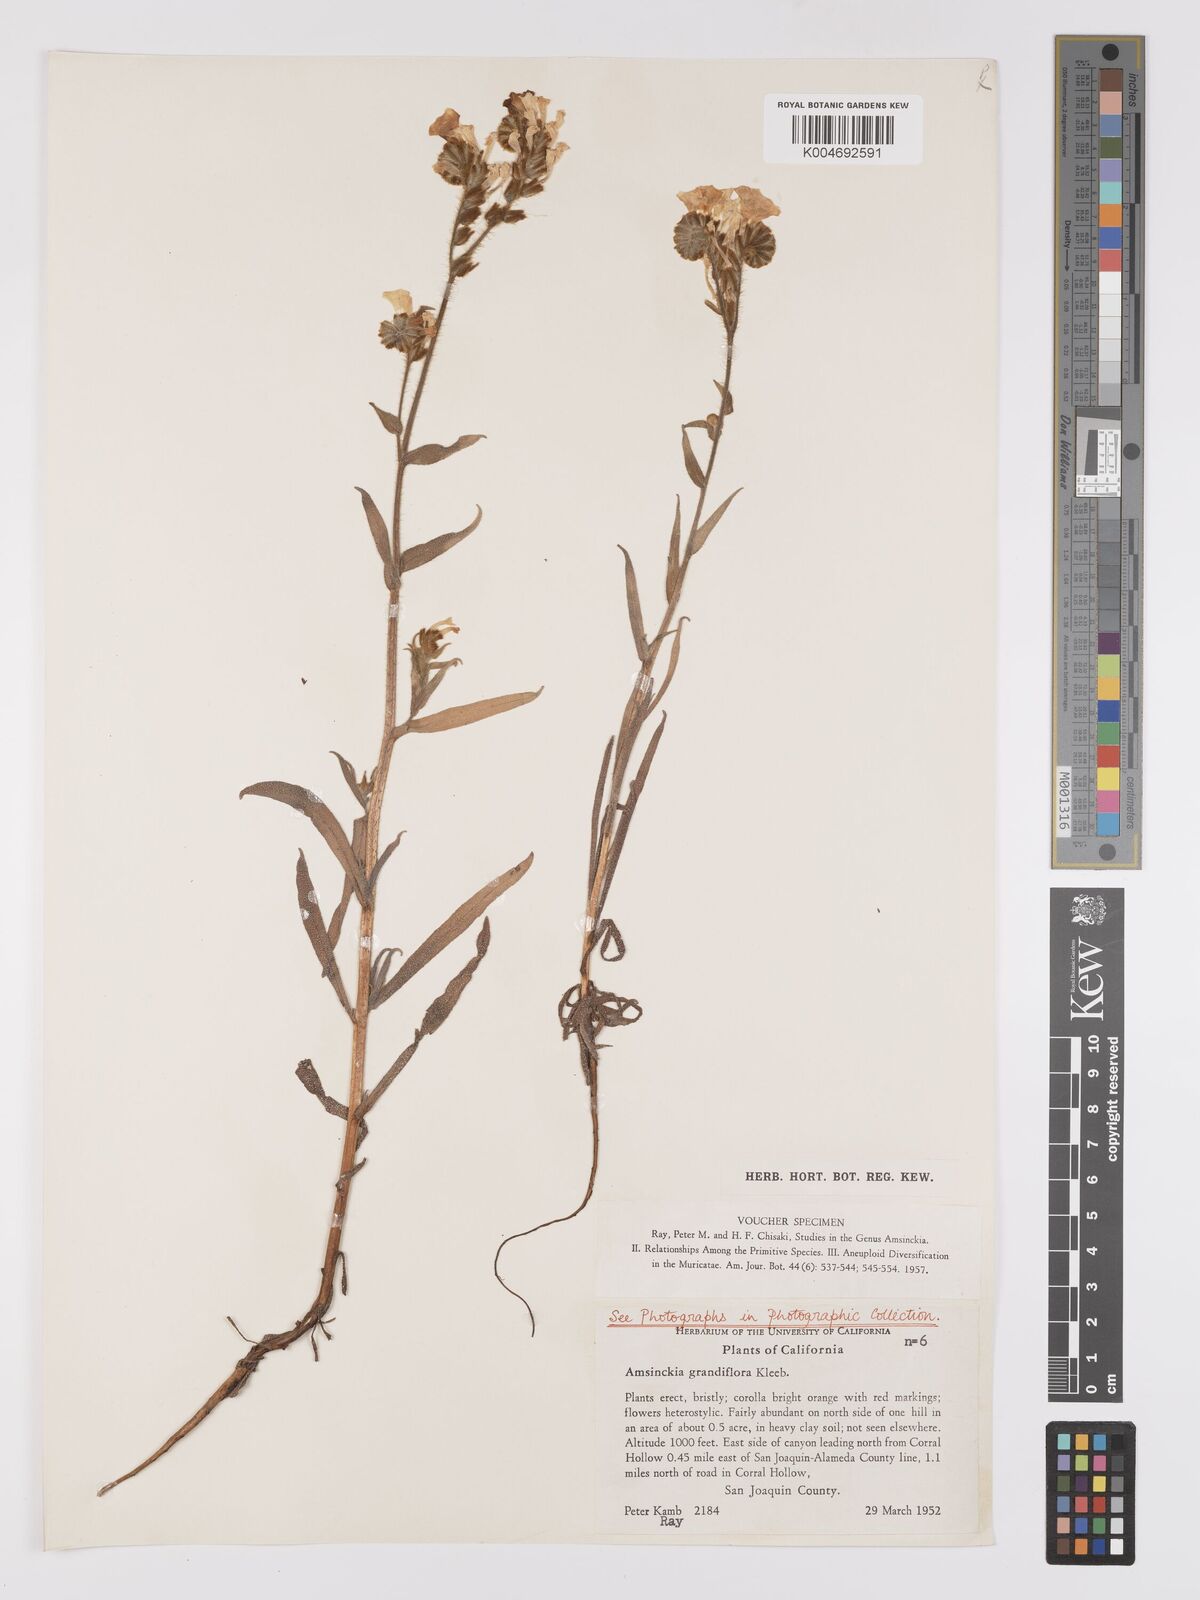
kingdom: Plantae
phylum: Tracheophyta
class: Magnoliopsida
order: Boraginales
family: Boraginaceae
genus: Amsinckia
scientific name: Amsinckia grandiflora
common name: Large-flower fiddleneck
